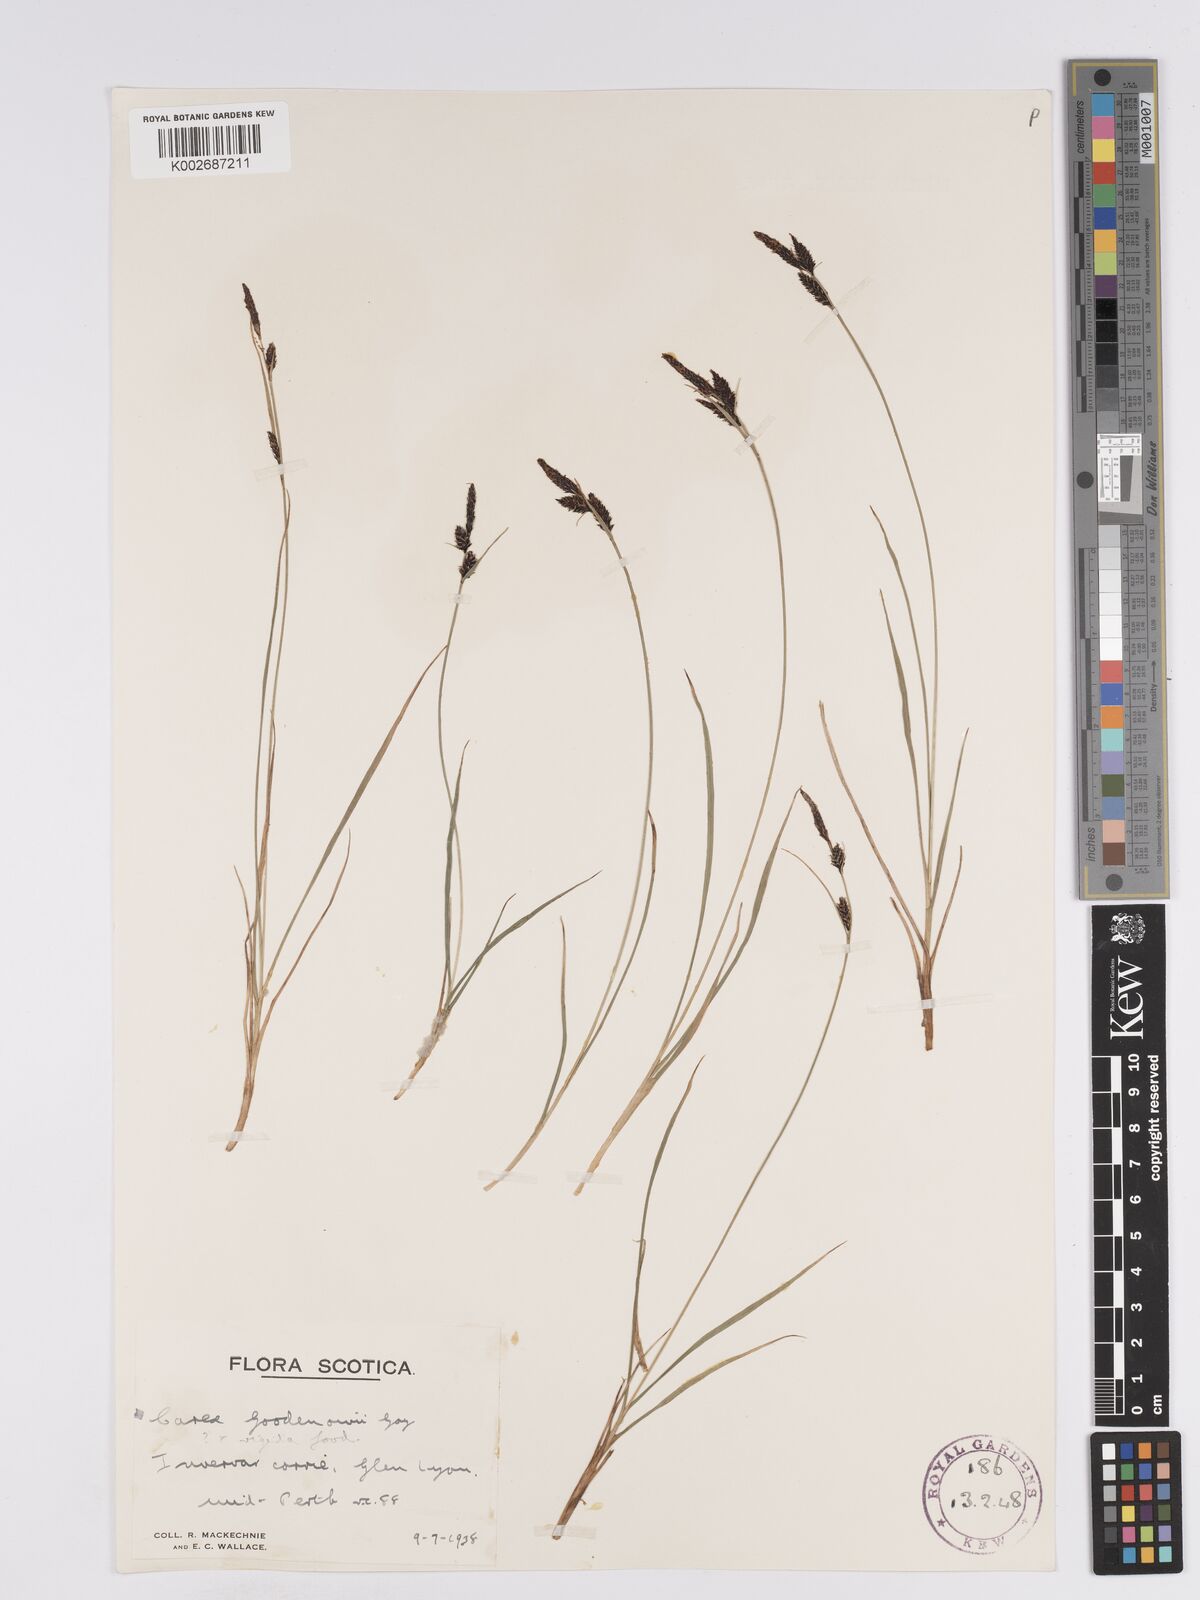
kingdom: Plantae
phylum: Tracheophyta
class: Liliopsida
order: Poales
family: Cyperaceae
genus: Carex
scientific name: Carex nigra
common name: Common sedge
